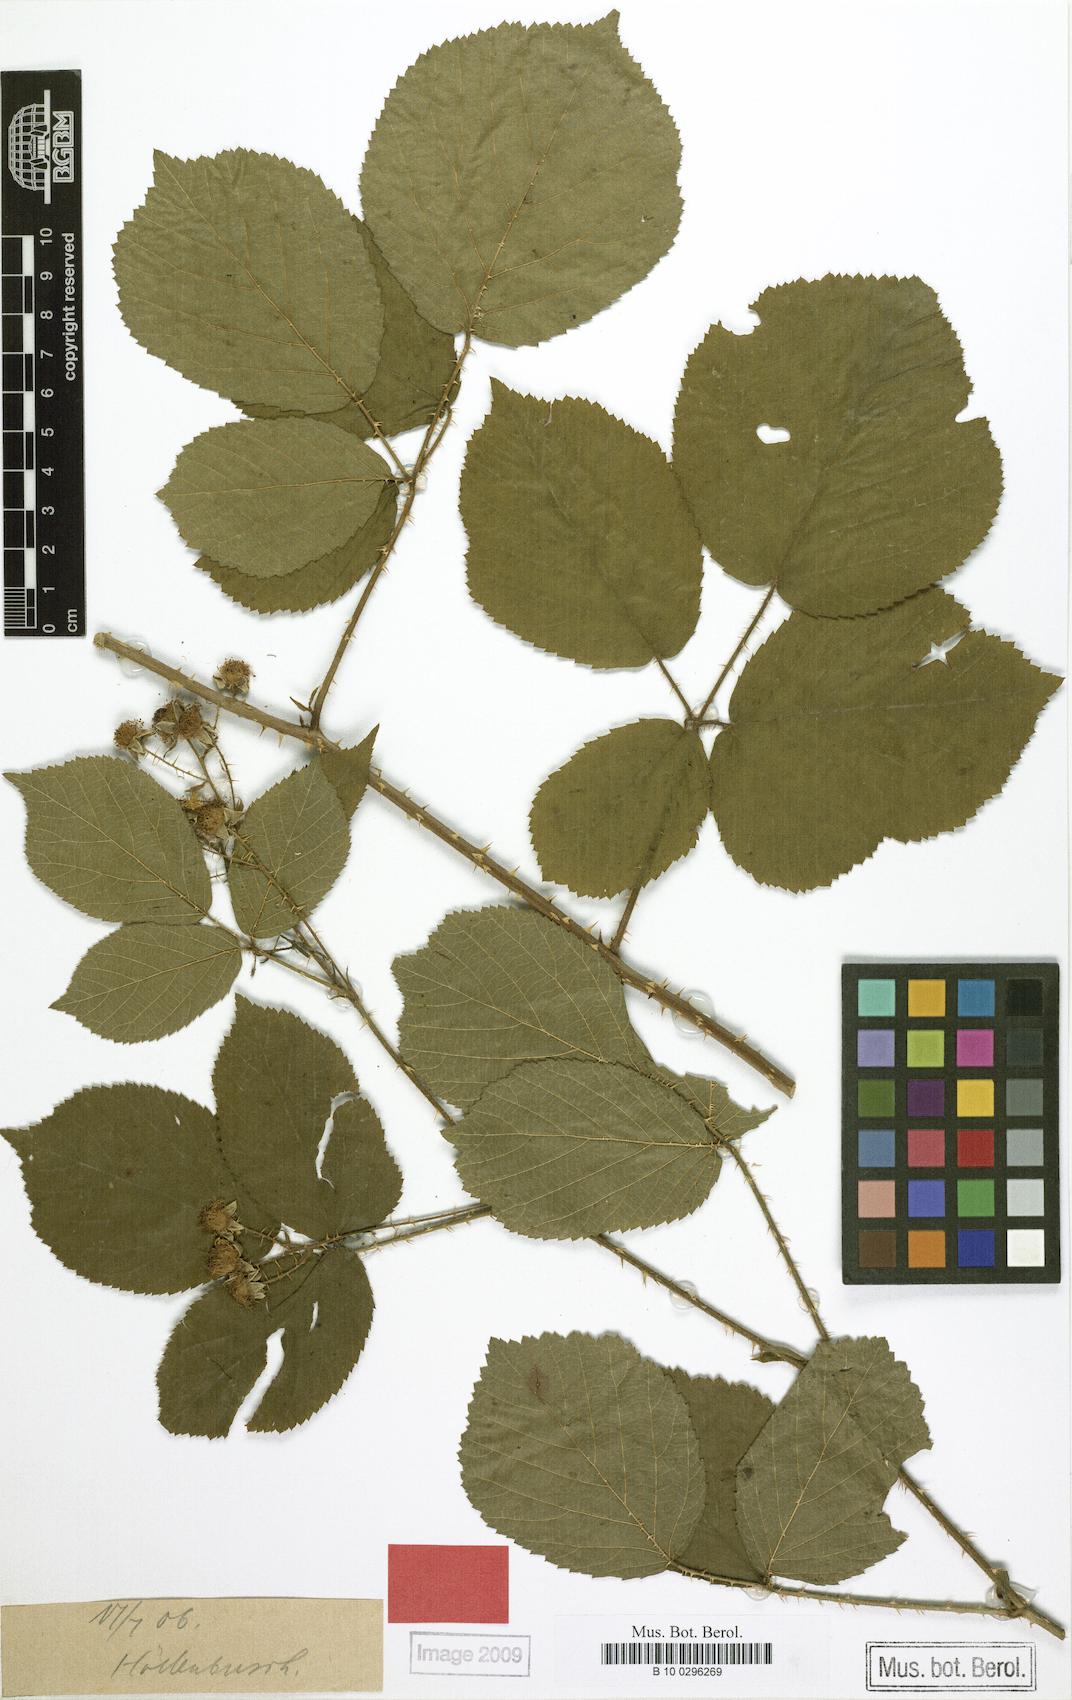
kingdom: Plantae
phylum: Tracheophyta
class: Magnoliopsida
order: Rosales
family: Rosaceae
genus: Rubus
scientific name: Rubus platydactylus
